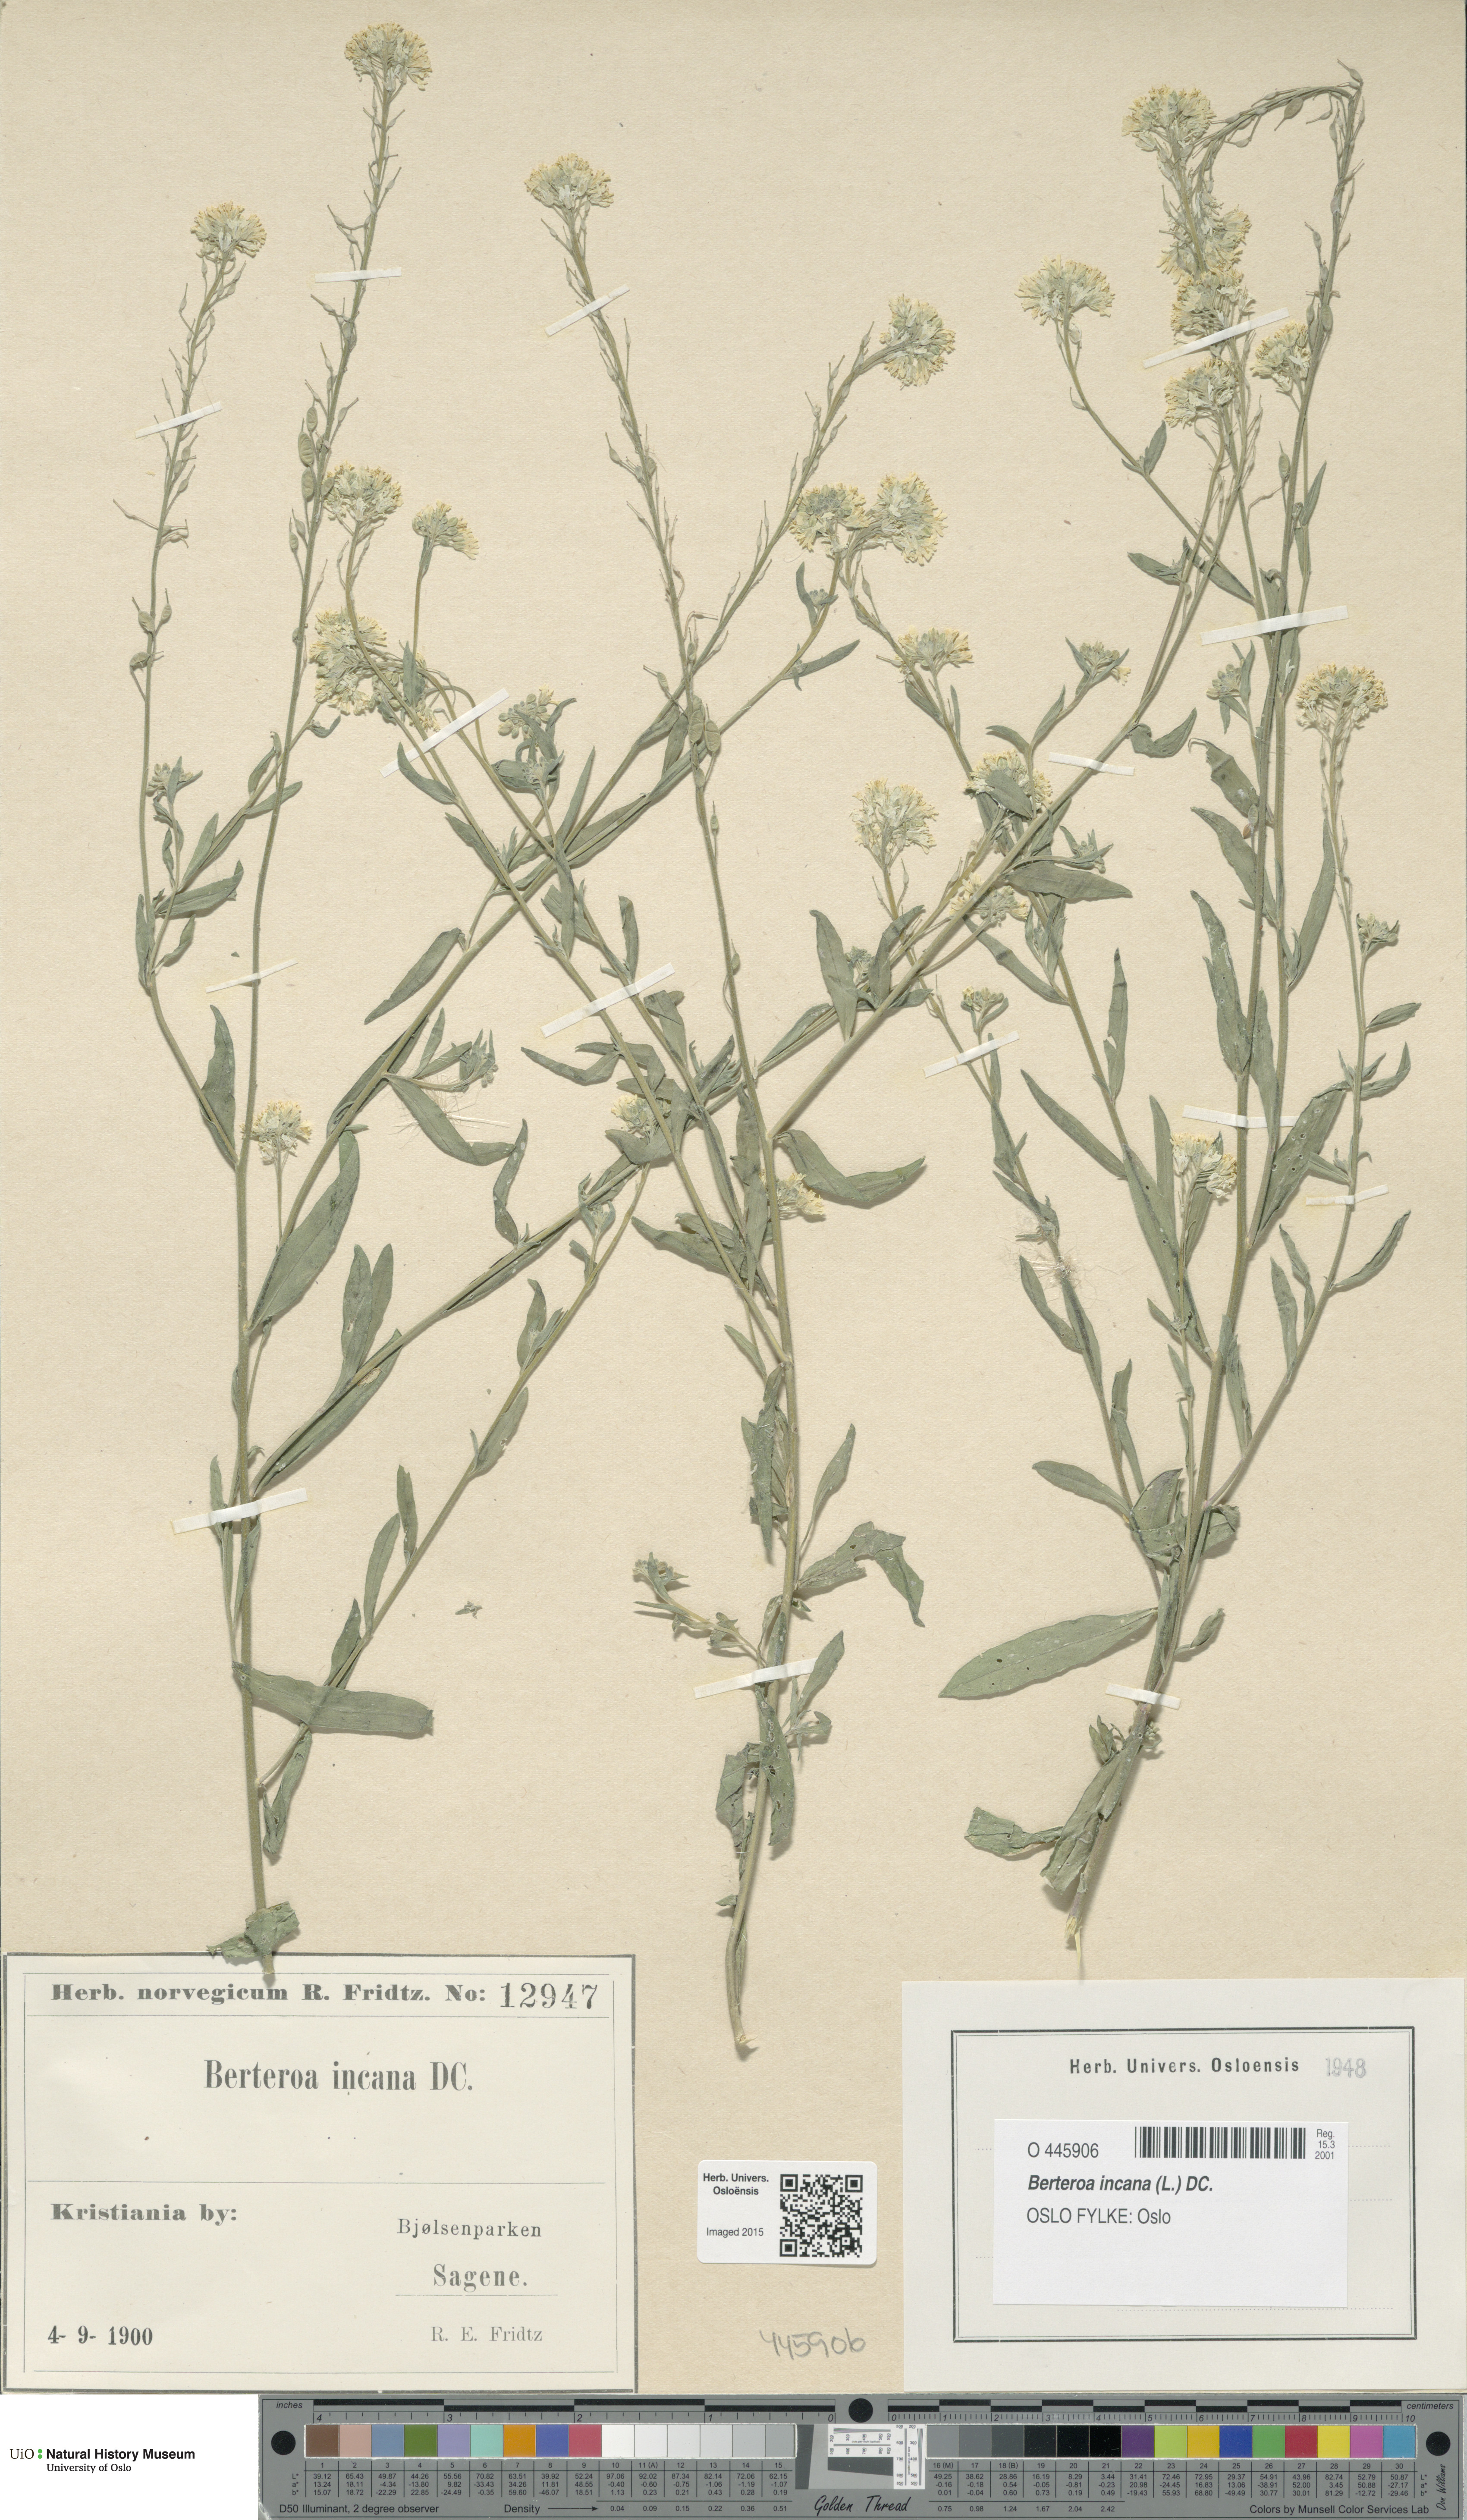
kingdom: Plantae
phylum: Tracheophyta
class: Magnoliopsida
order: Brassicales
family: Brassicaceae
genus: Berteroa
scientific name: Berteroa incana
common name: Hoary alison
